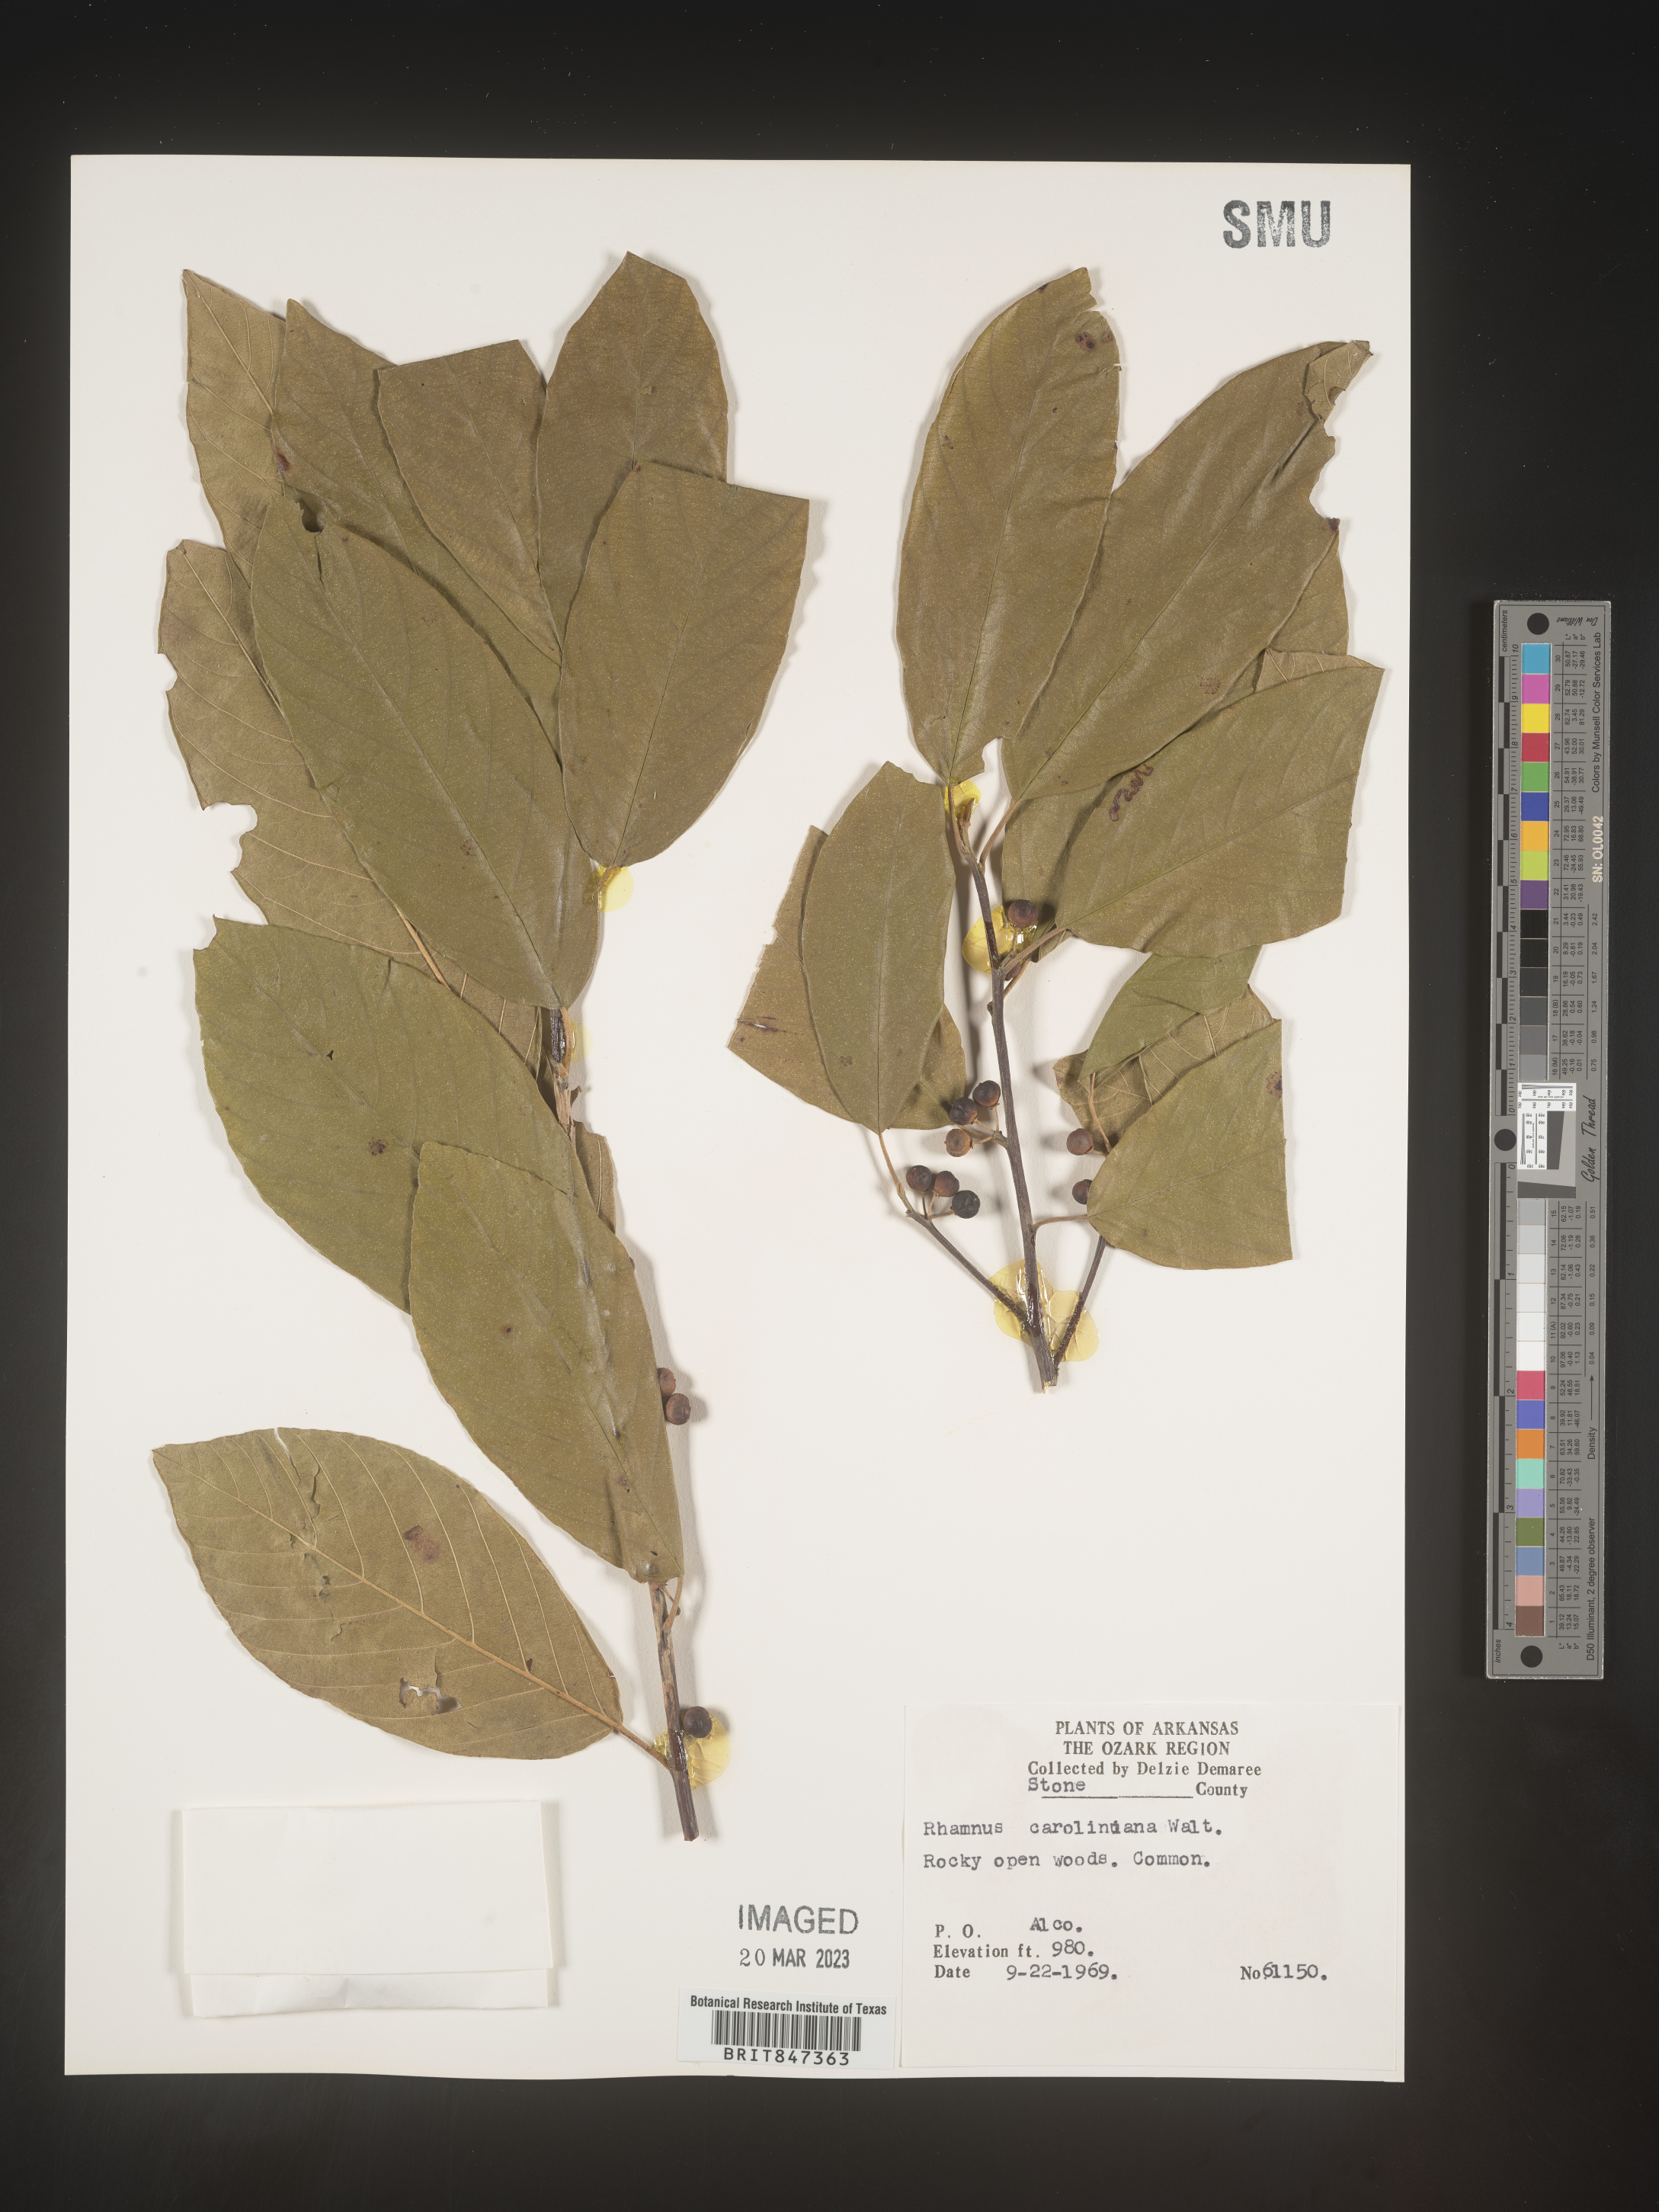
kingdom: Plantae
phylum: Tracheophyta
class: Magnoliopsida
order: Rosales
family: Rhamnaceae
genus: Frangula
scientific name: Frangula caroliniana
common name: Carolina buckthorn
